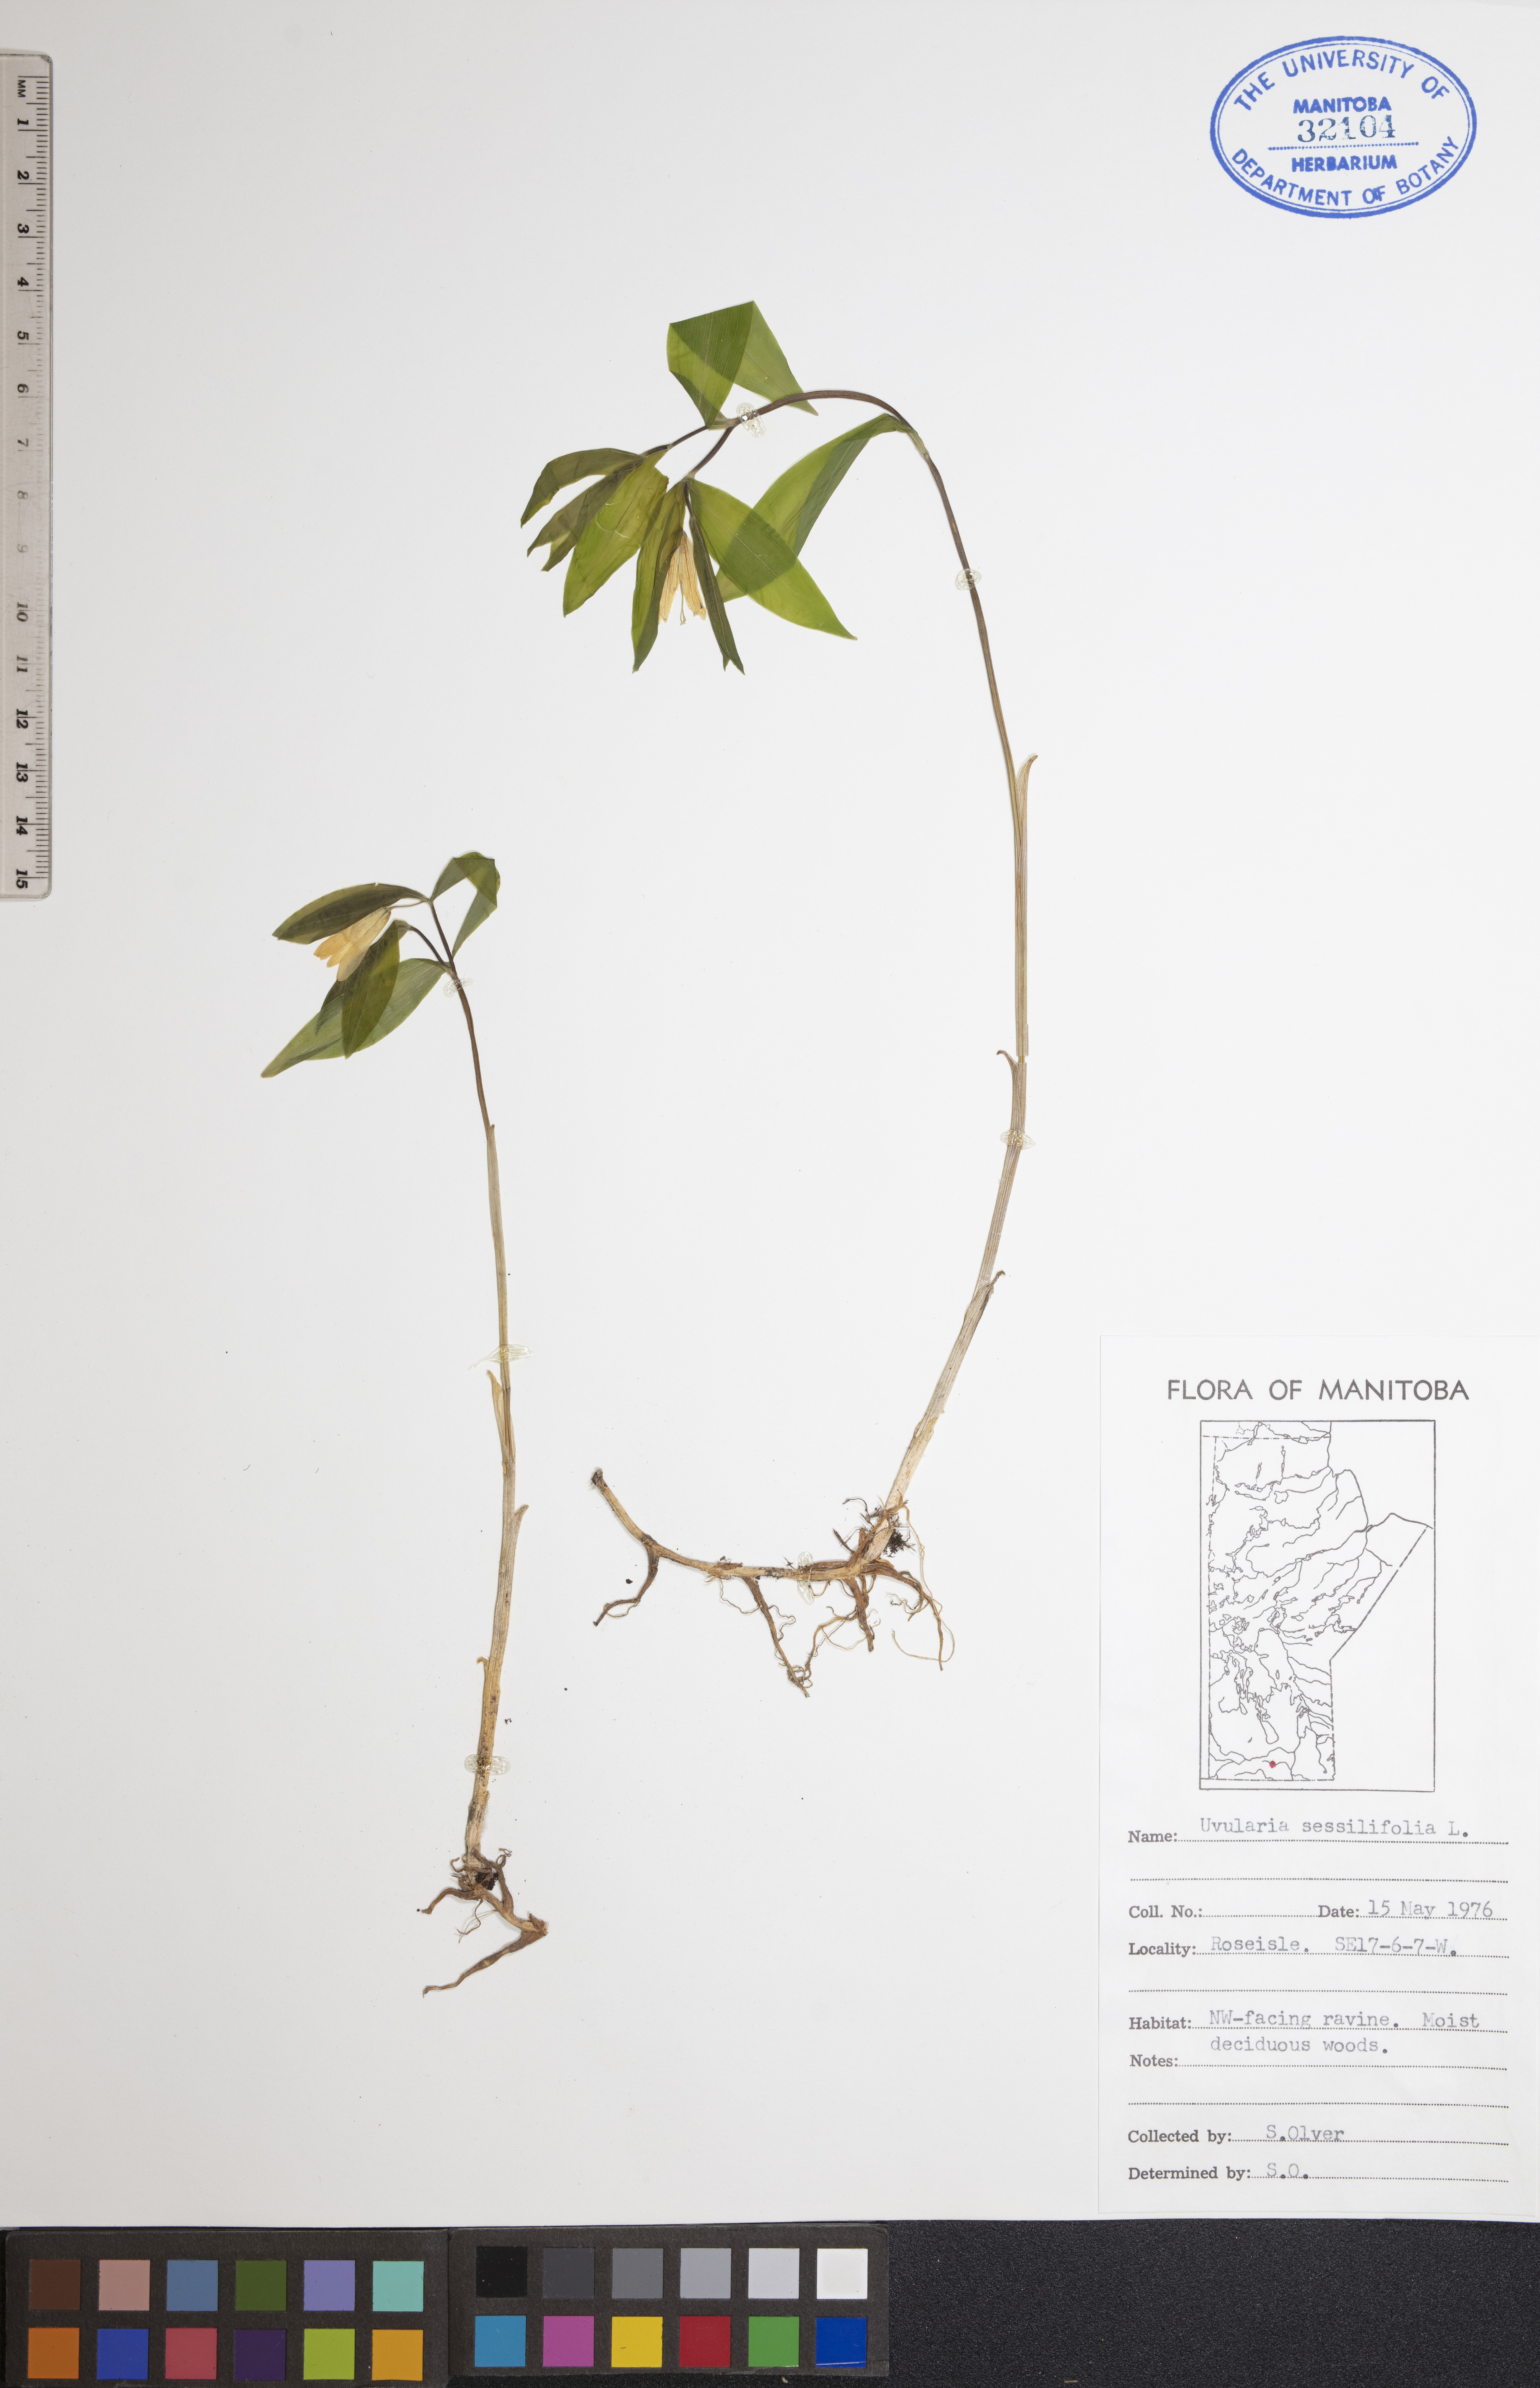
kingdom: Plantae
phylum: Tracheophyta
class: Liliopsida
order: Liliales
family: Colchicaceae
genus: Uvularia
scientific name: Uvularia sessilifolia
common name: Straw-lily
